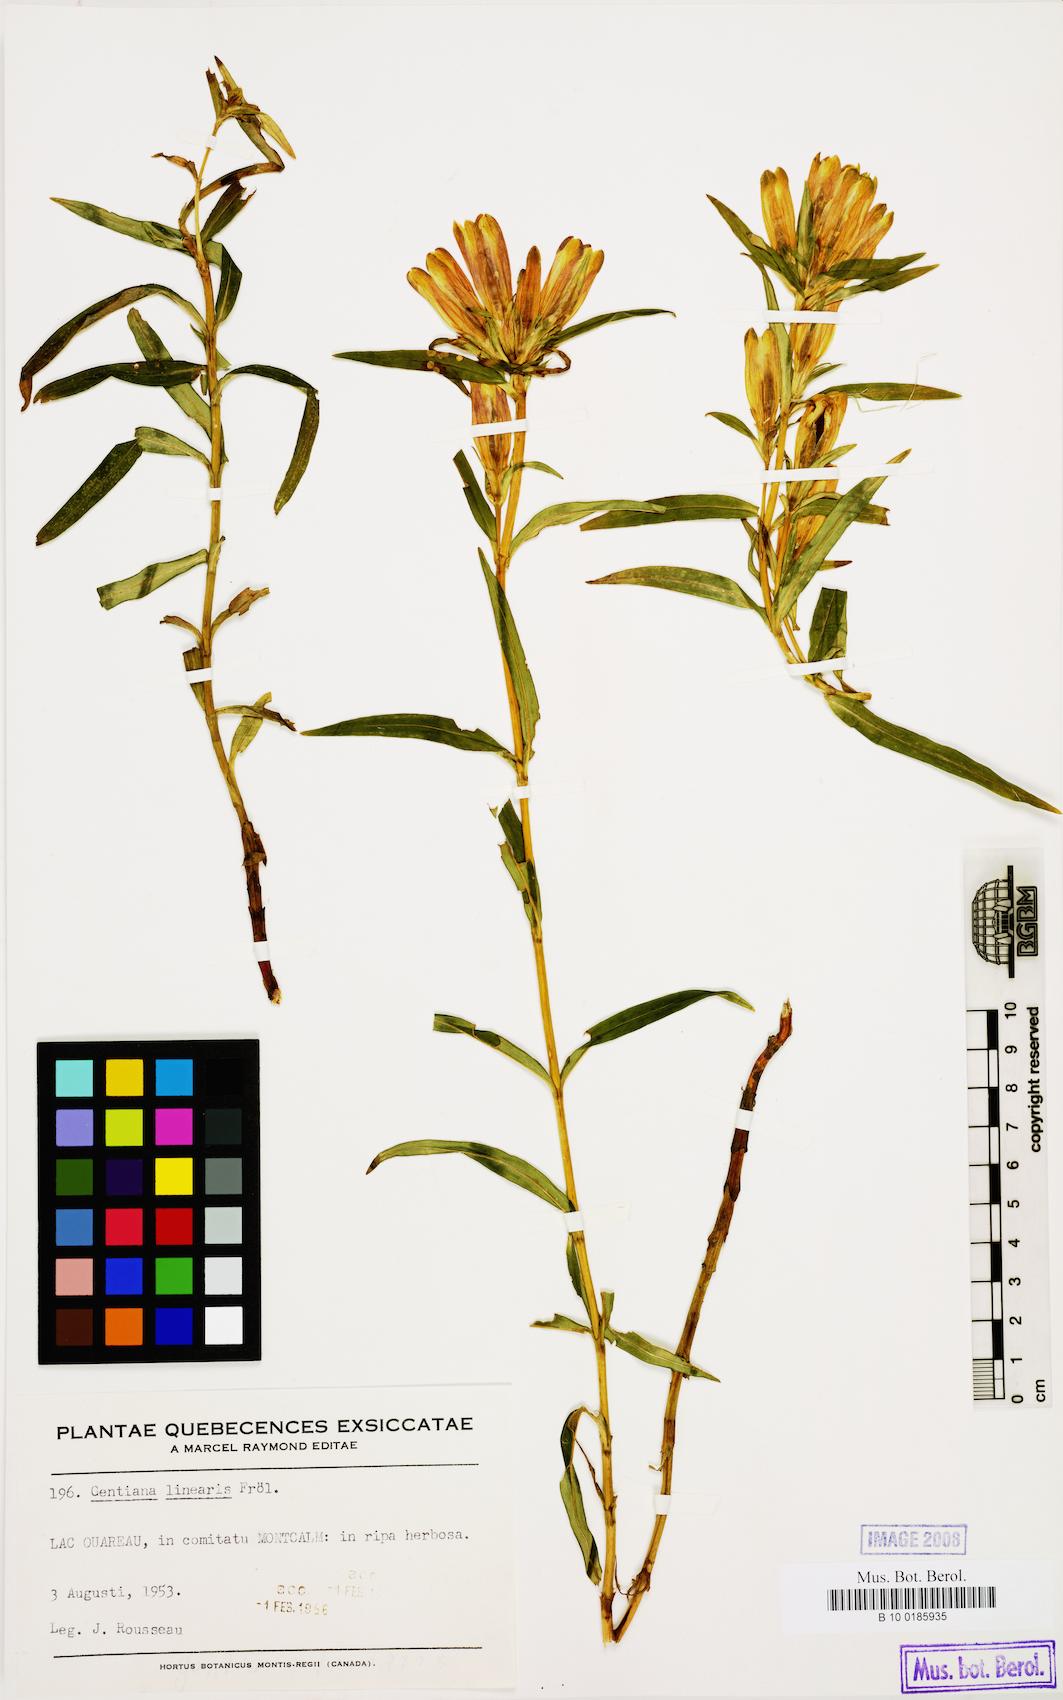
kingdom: Plantae
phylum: Tracheophyta
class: Magnoliopsida
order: Gentianales
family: Gentianaceae
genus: Gentiana
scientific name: Gentiana linearis
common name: Bastard gentian
